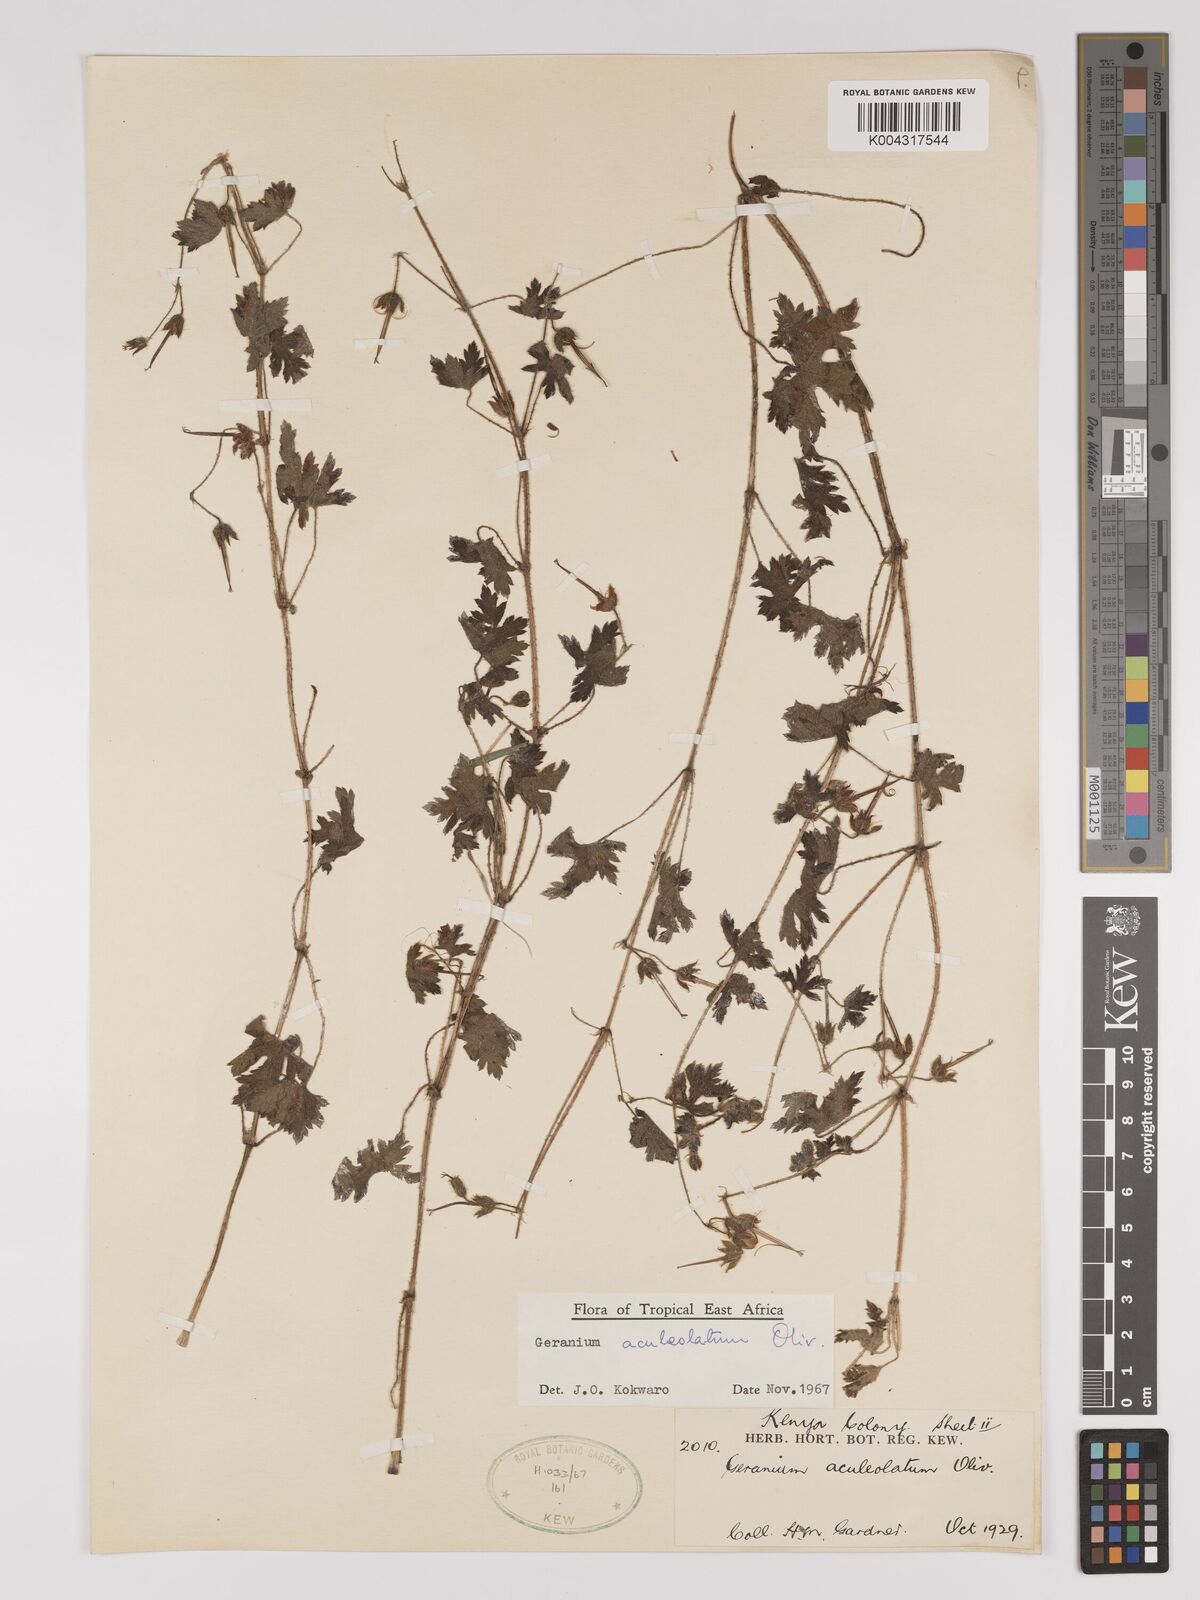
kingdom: Plantae
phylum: Tracheophyta
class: Magnoliopsida
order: Geraniales
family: Geraniaceae
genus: Geranium
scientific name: Geranium aculeolatum
